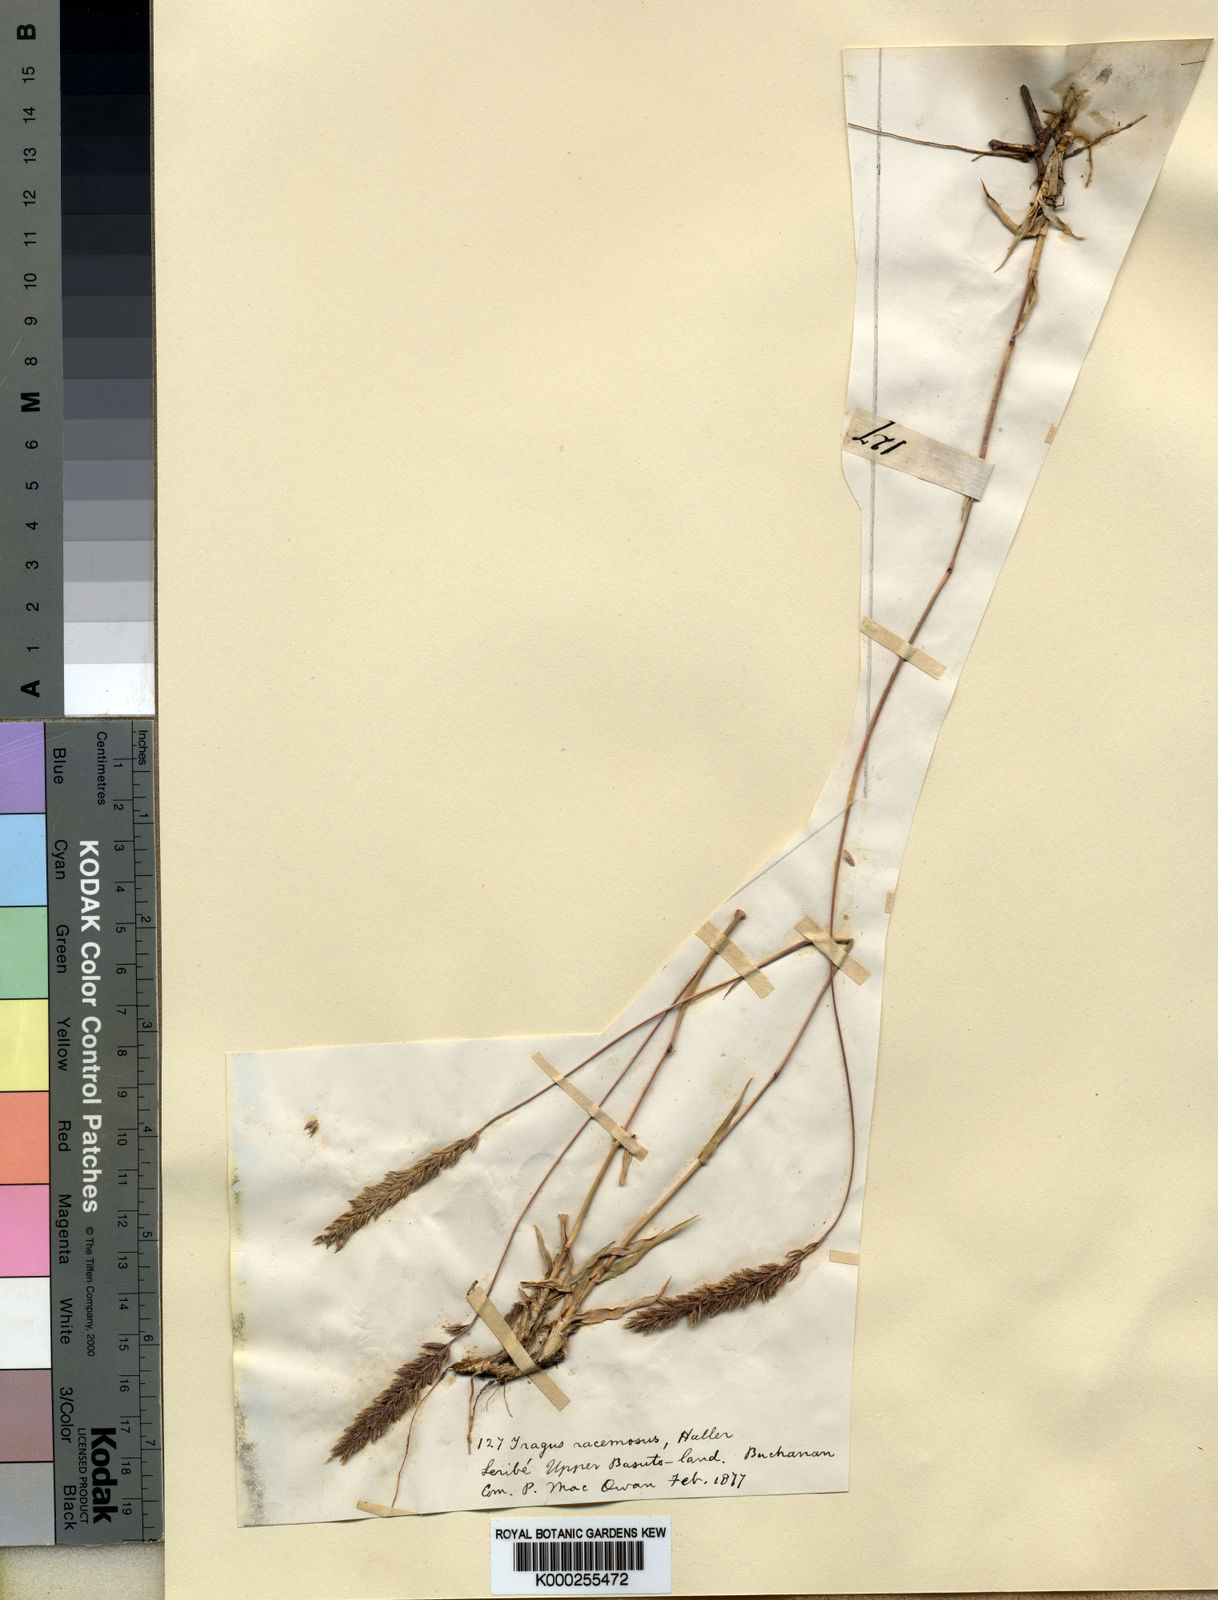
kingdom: Plantae
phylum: Tracheophyta
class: Liliopsida
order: Poales
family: Poaceae
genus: Tragus
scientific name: Tragus koelerioides
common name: Creeping carrot-seed grass
